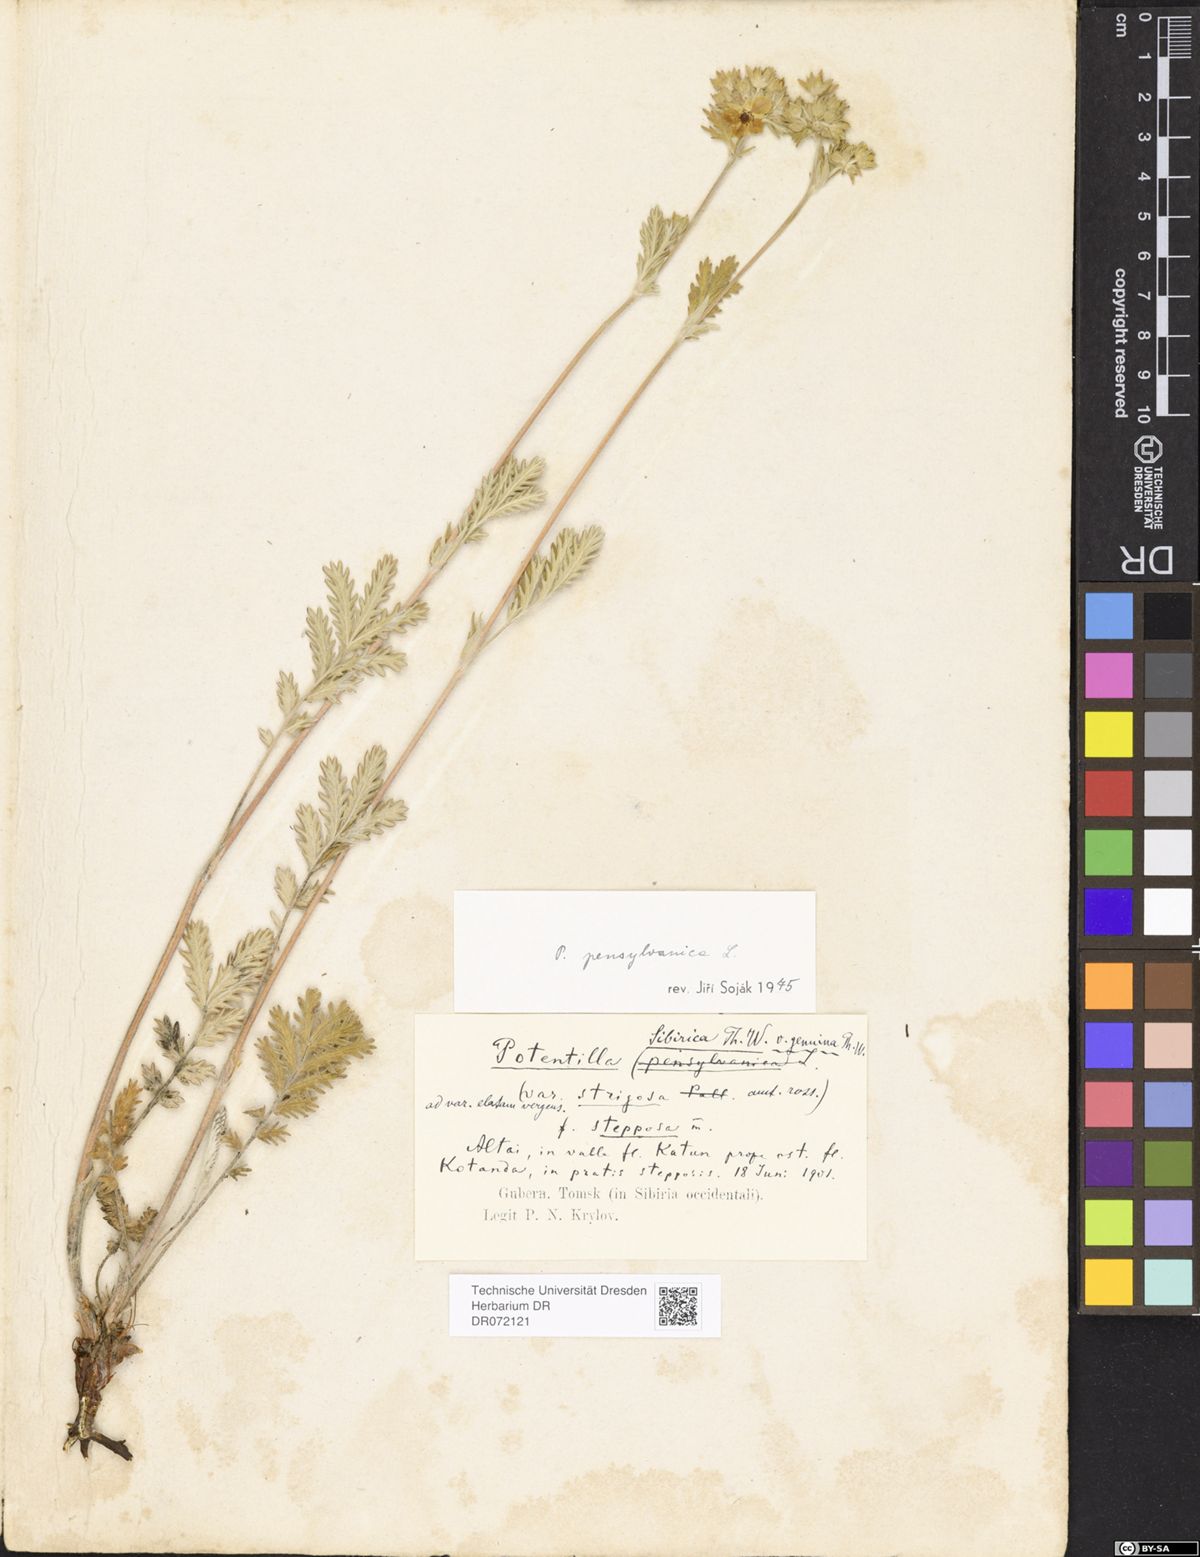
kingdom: Plantae
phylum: Tracheophyta
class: Magnoliopsida
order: Rosales
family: Rosaceae
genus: Potentilla
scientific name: Potentilla pensylvanica
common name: Pennsylvania cinquefoil
